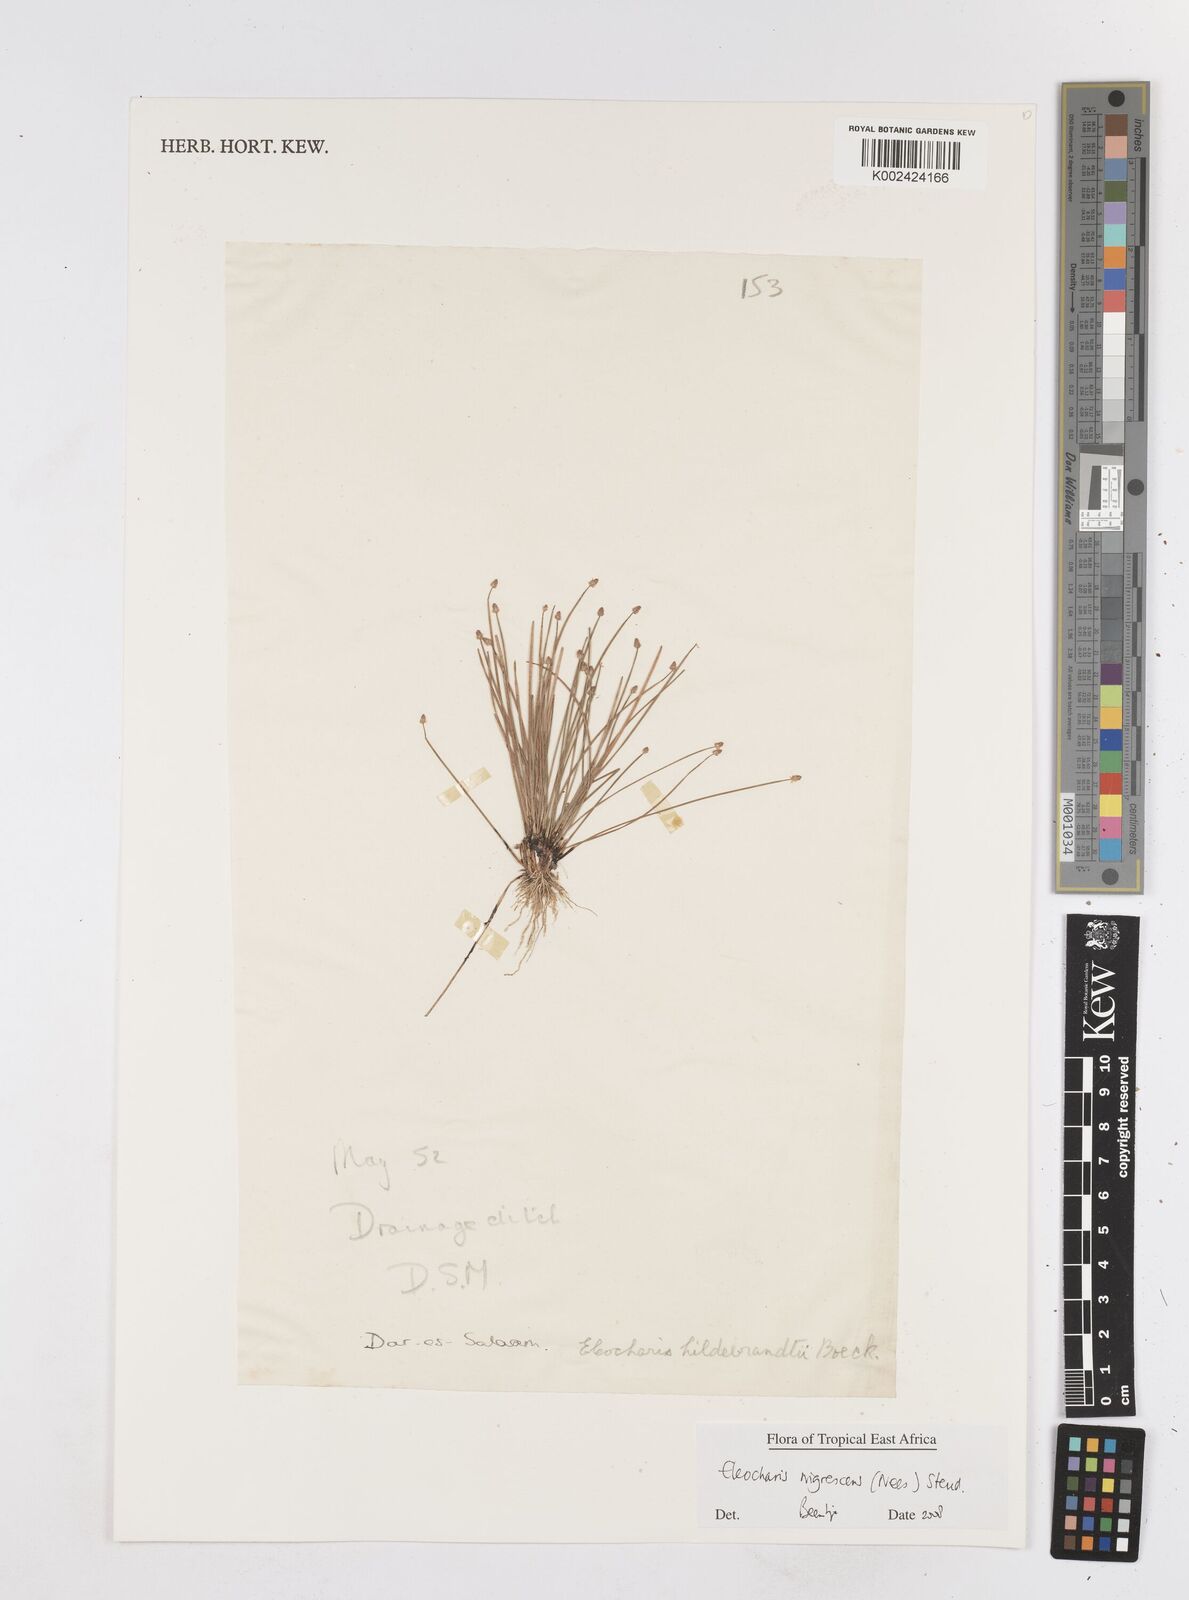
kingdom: Plantae
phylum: Tracheophyta
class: Liliopsida
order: Poales
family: Cyperaceae
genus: Eleocharis
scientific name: Eleocharis nigrescens
